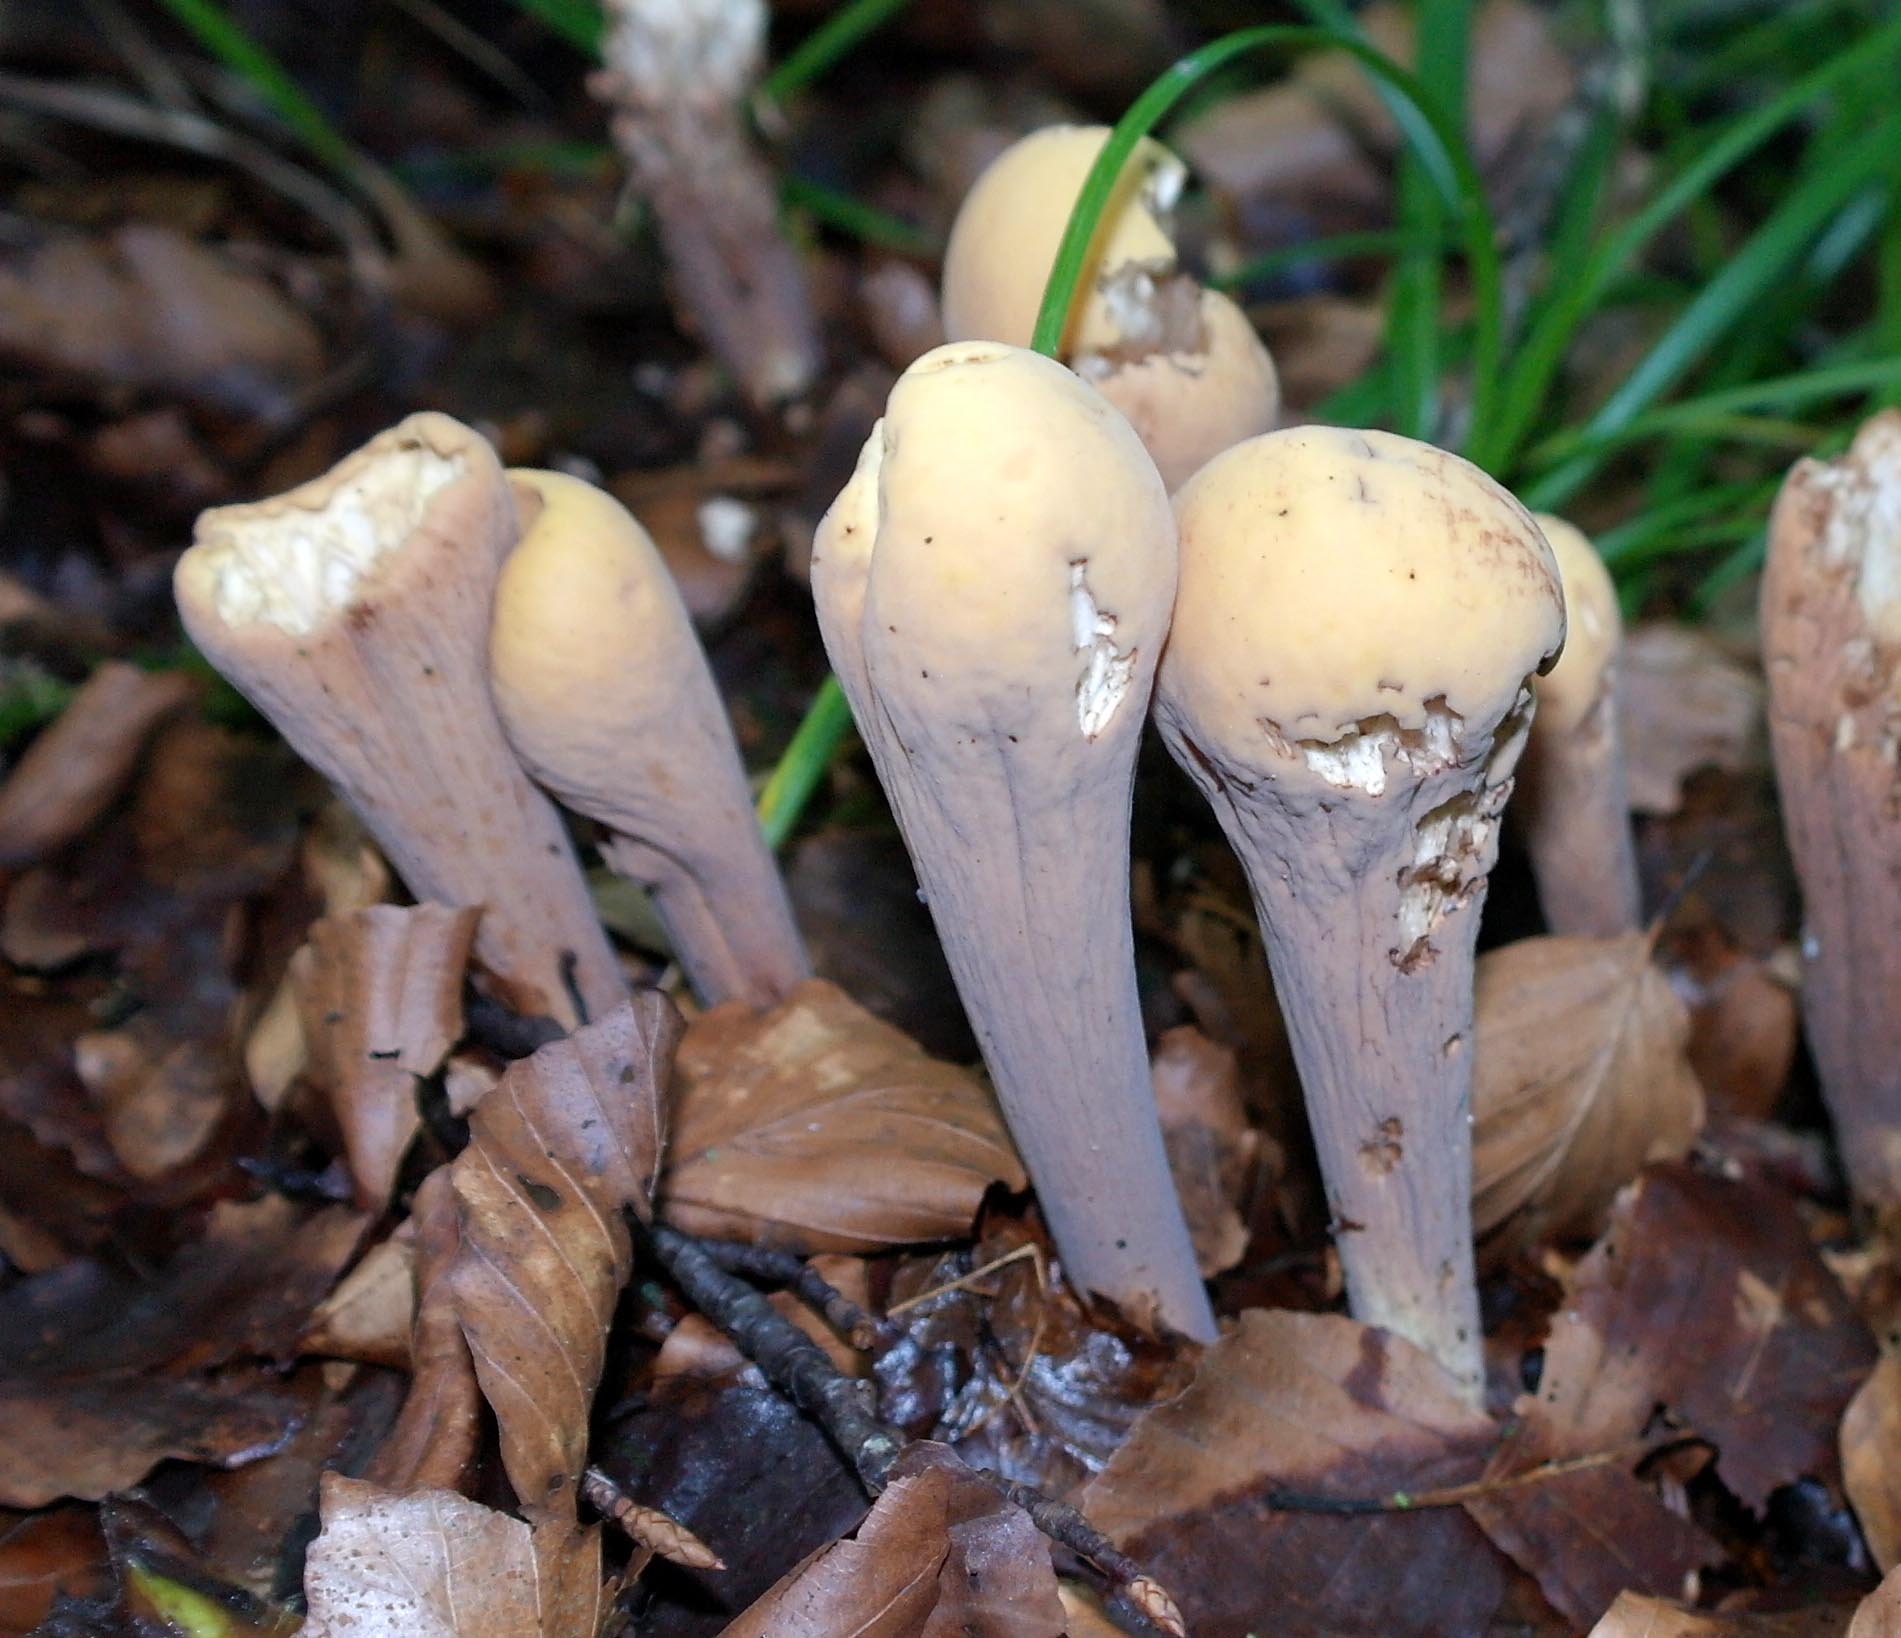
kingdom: Fungi
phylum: Basidiomycota
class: Agaricomycetes
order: Gomphales
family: Clavariadelphaceae
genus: Clavariadelphus
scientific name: Clavariadelphus pistillaris
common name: herkules-kæmpekølle
